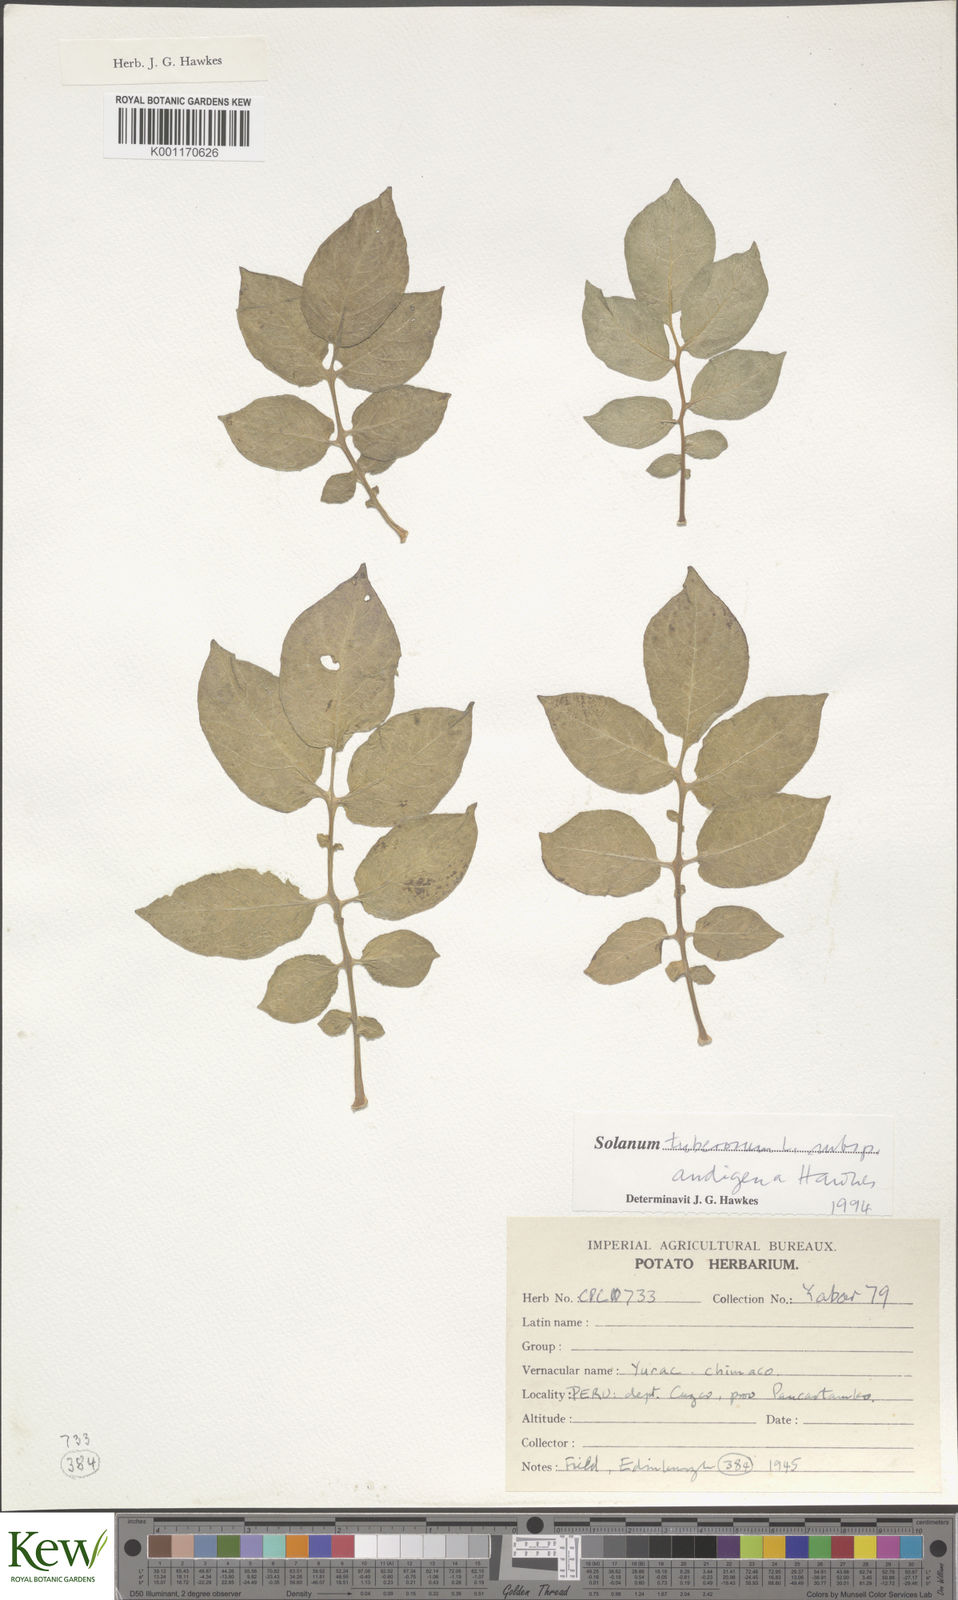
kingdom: Plantae
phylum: Tracheophyta
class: Magnoliopsida
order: Solanales
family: Solanaceae
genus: Solanum
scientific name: Solanum tuberosum
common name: Potato
